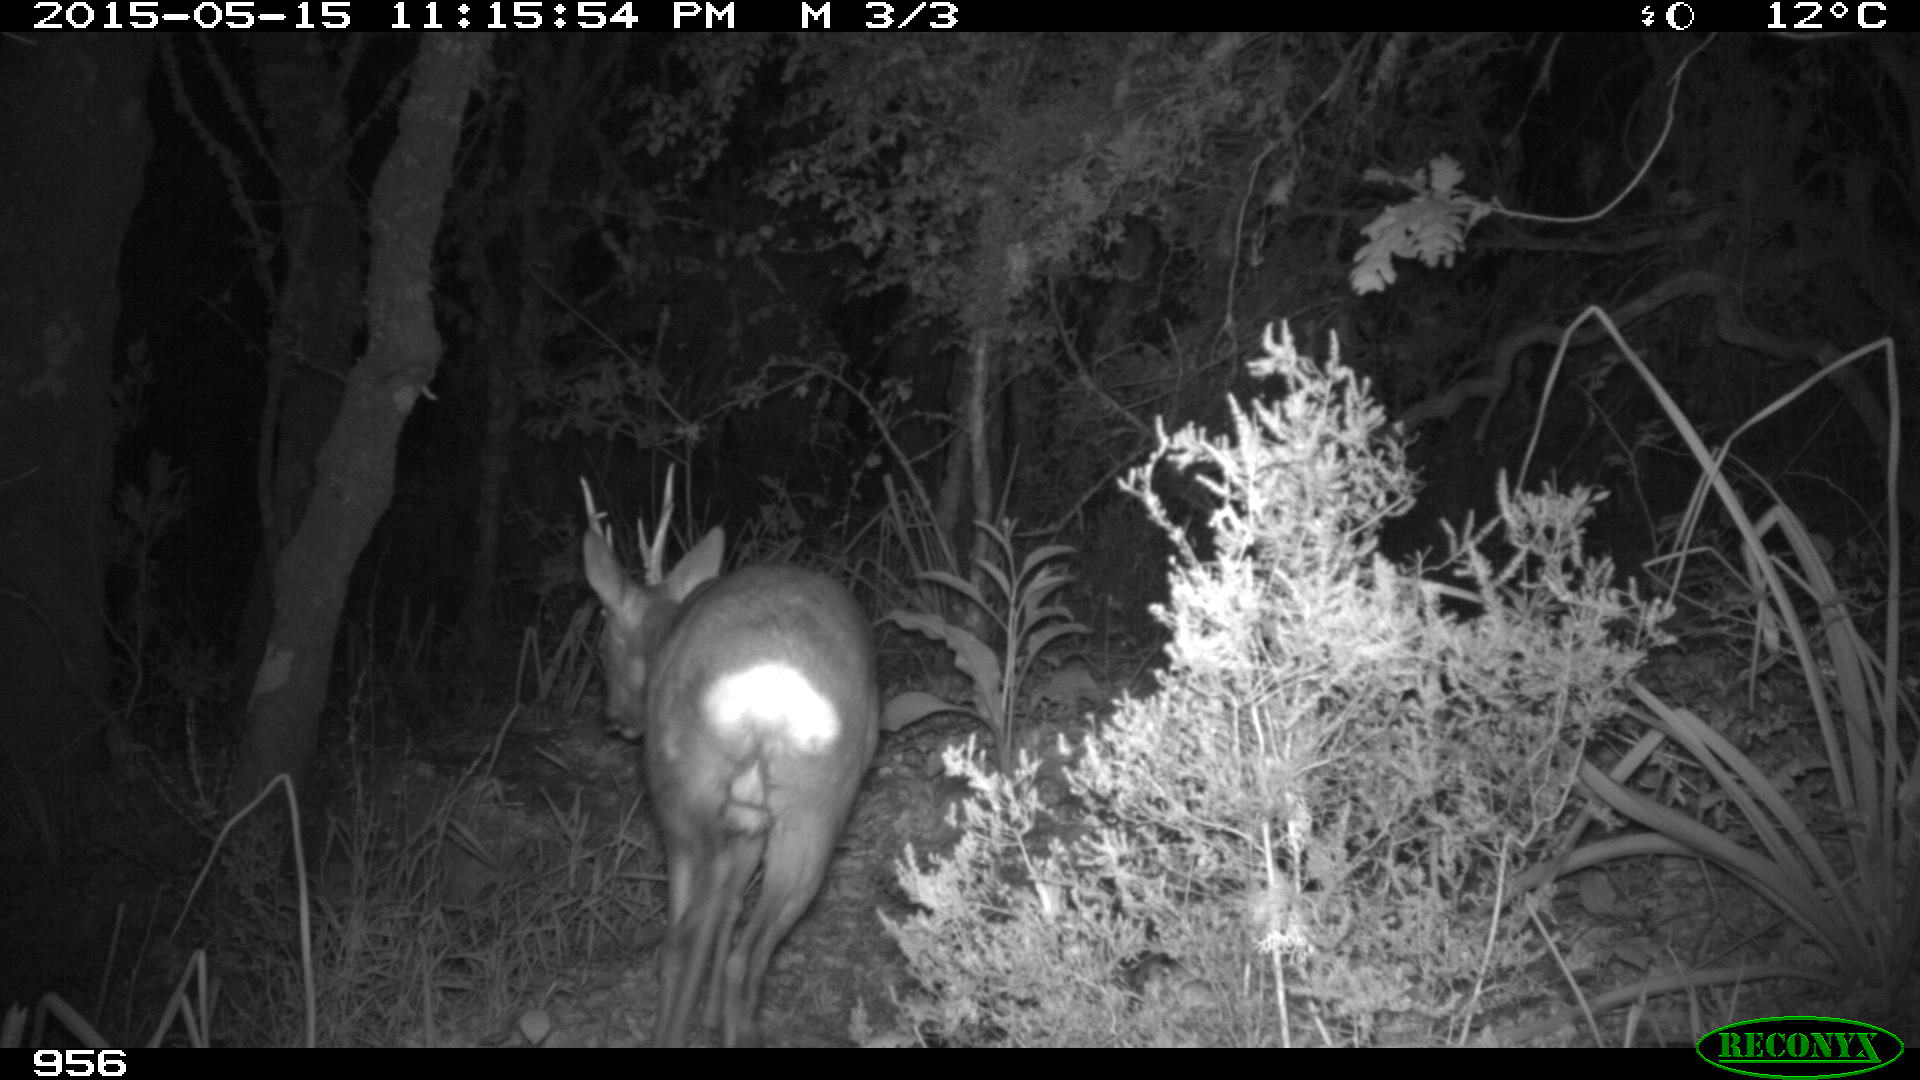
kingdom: Animalia
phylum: Chordata
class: Mammalia
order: Artiodactyla
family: Cervidae
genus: Capreolus
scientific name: Capreolus capreolus
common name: Western roe deer
